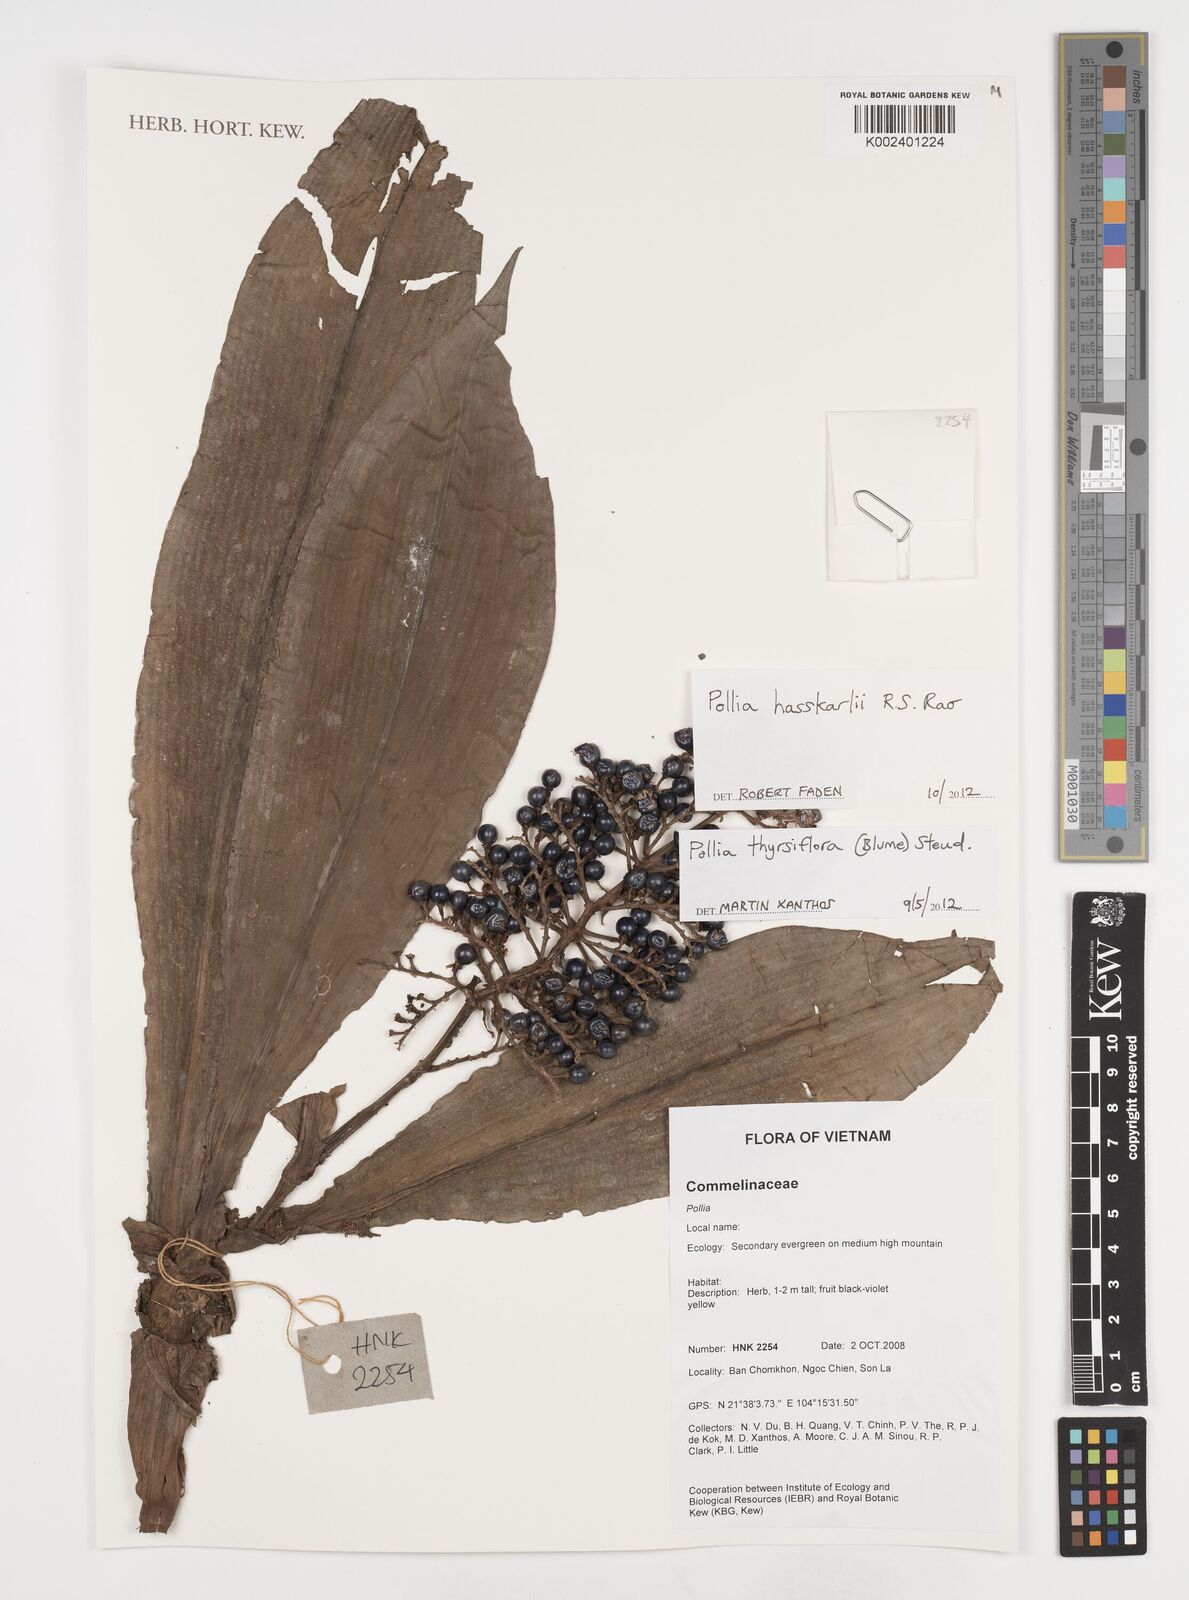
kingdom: Plantae
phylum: Tracheophyta
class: Liliopsida
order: Commelinales
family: Commelinaceae
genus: Pollia
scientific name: Pollia hasskarlii
